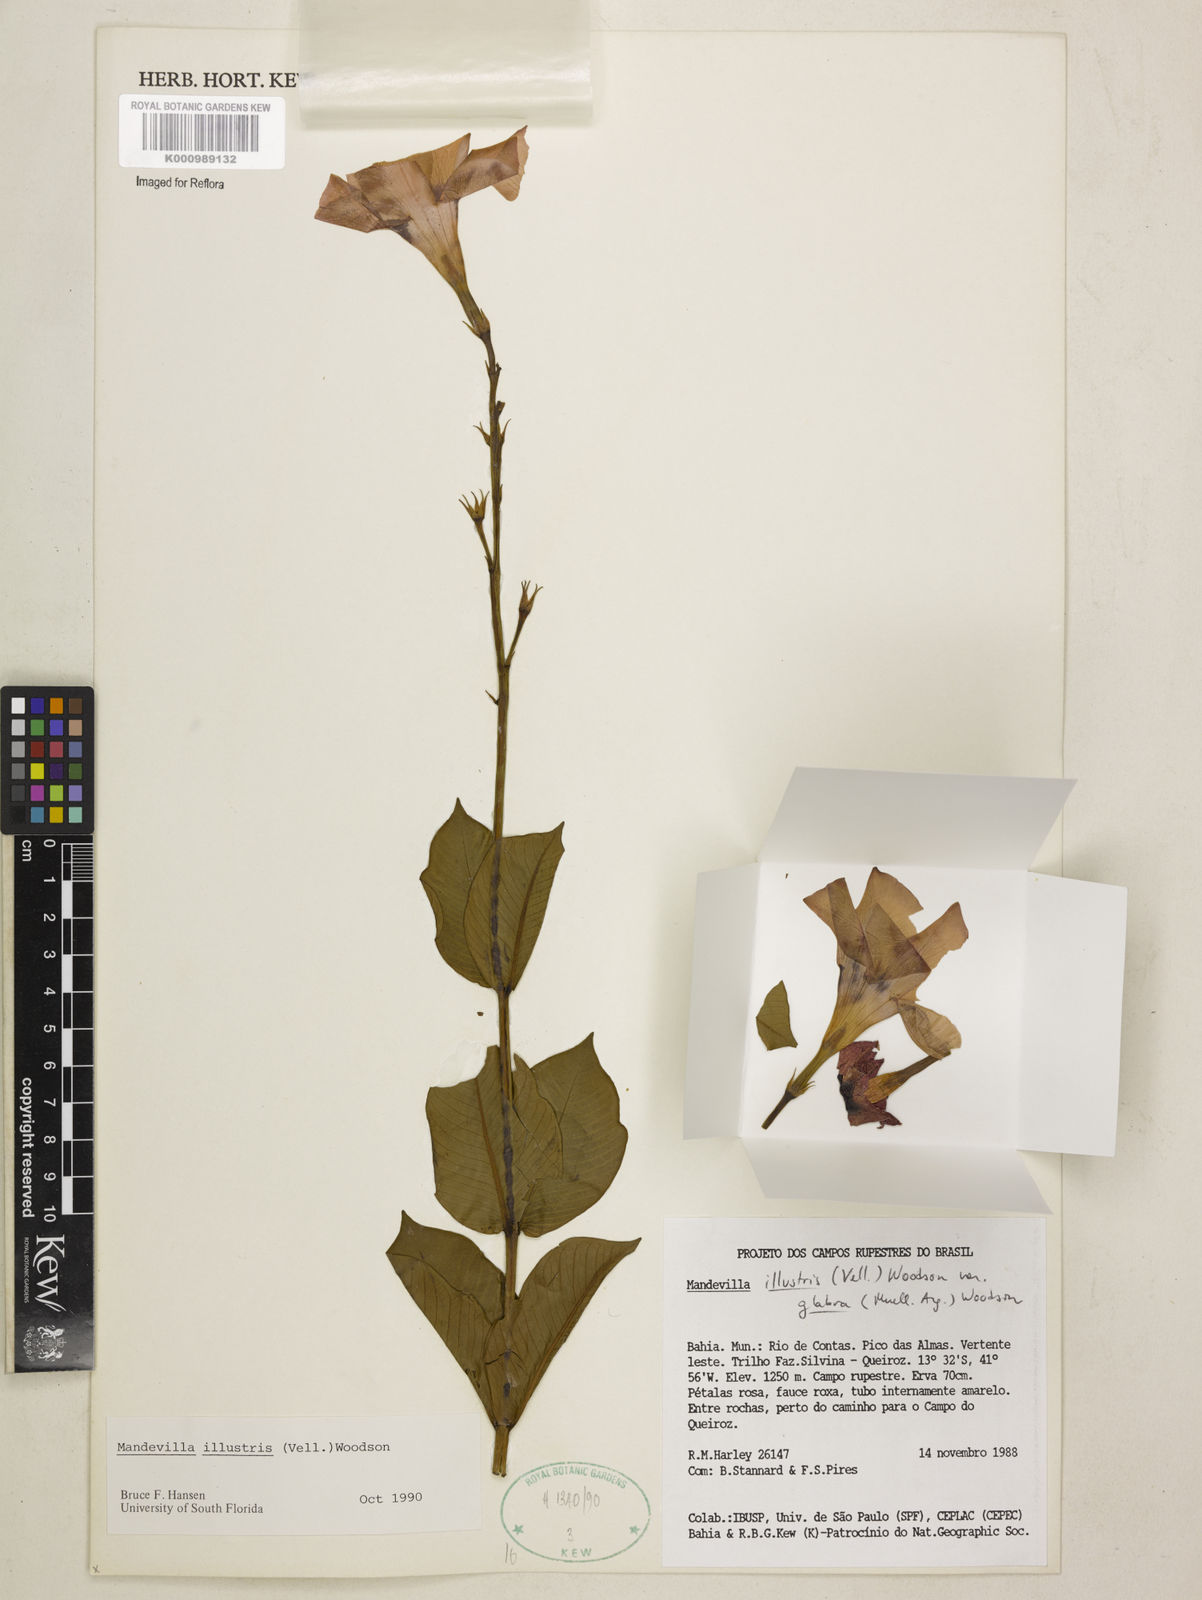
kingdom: Plantae
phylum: Tracheophyta
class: Magnoliopsida
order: Gentianales
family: Apocynaceae
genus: Mandevilla
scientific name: Mandevilla
